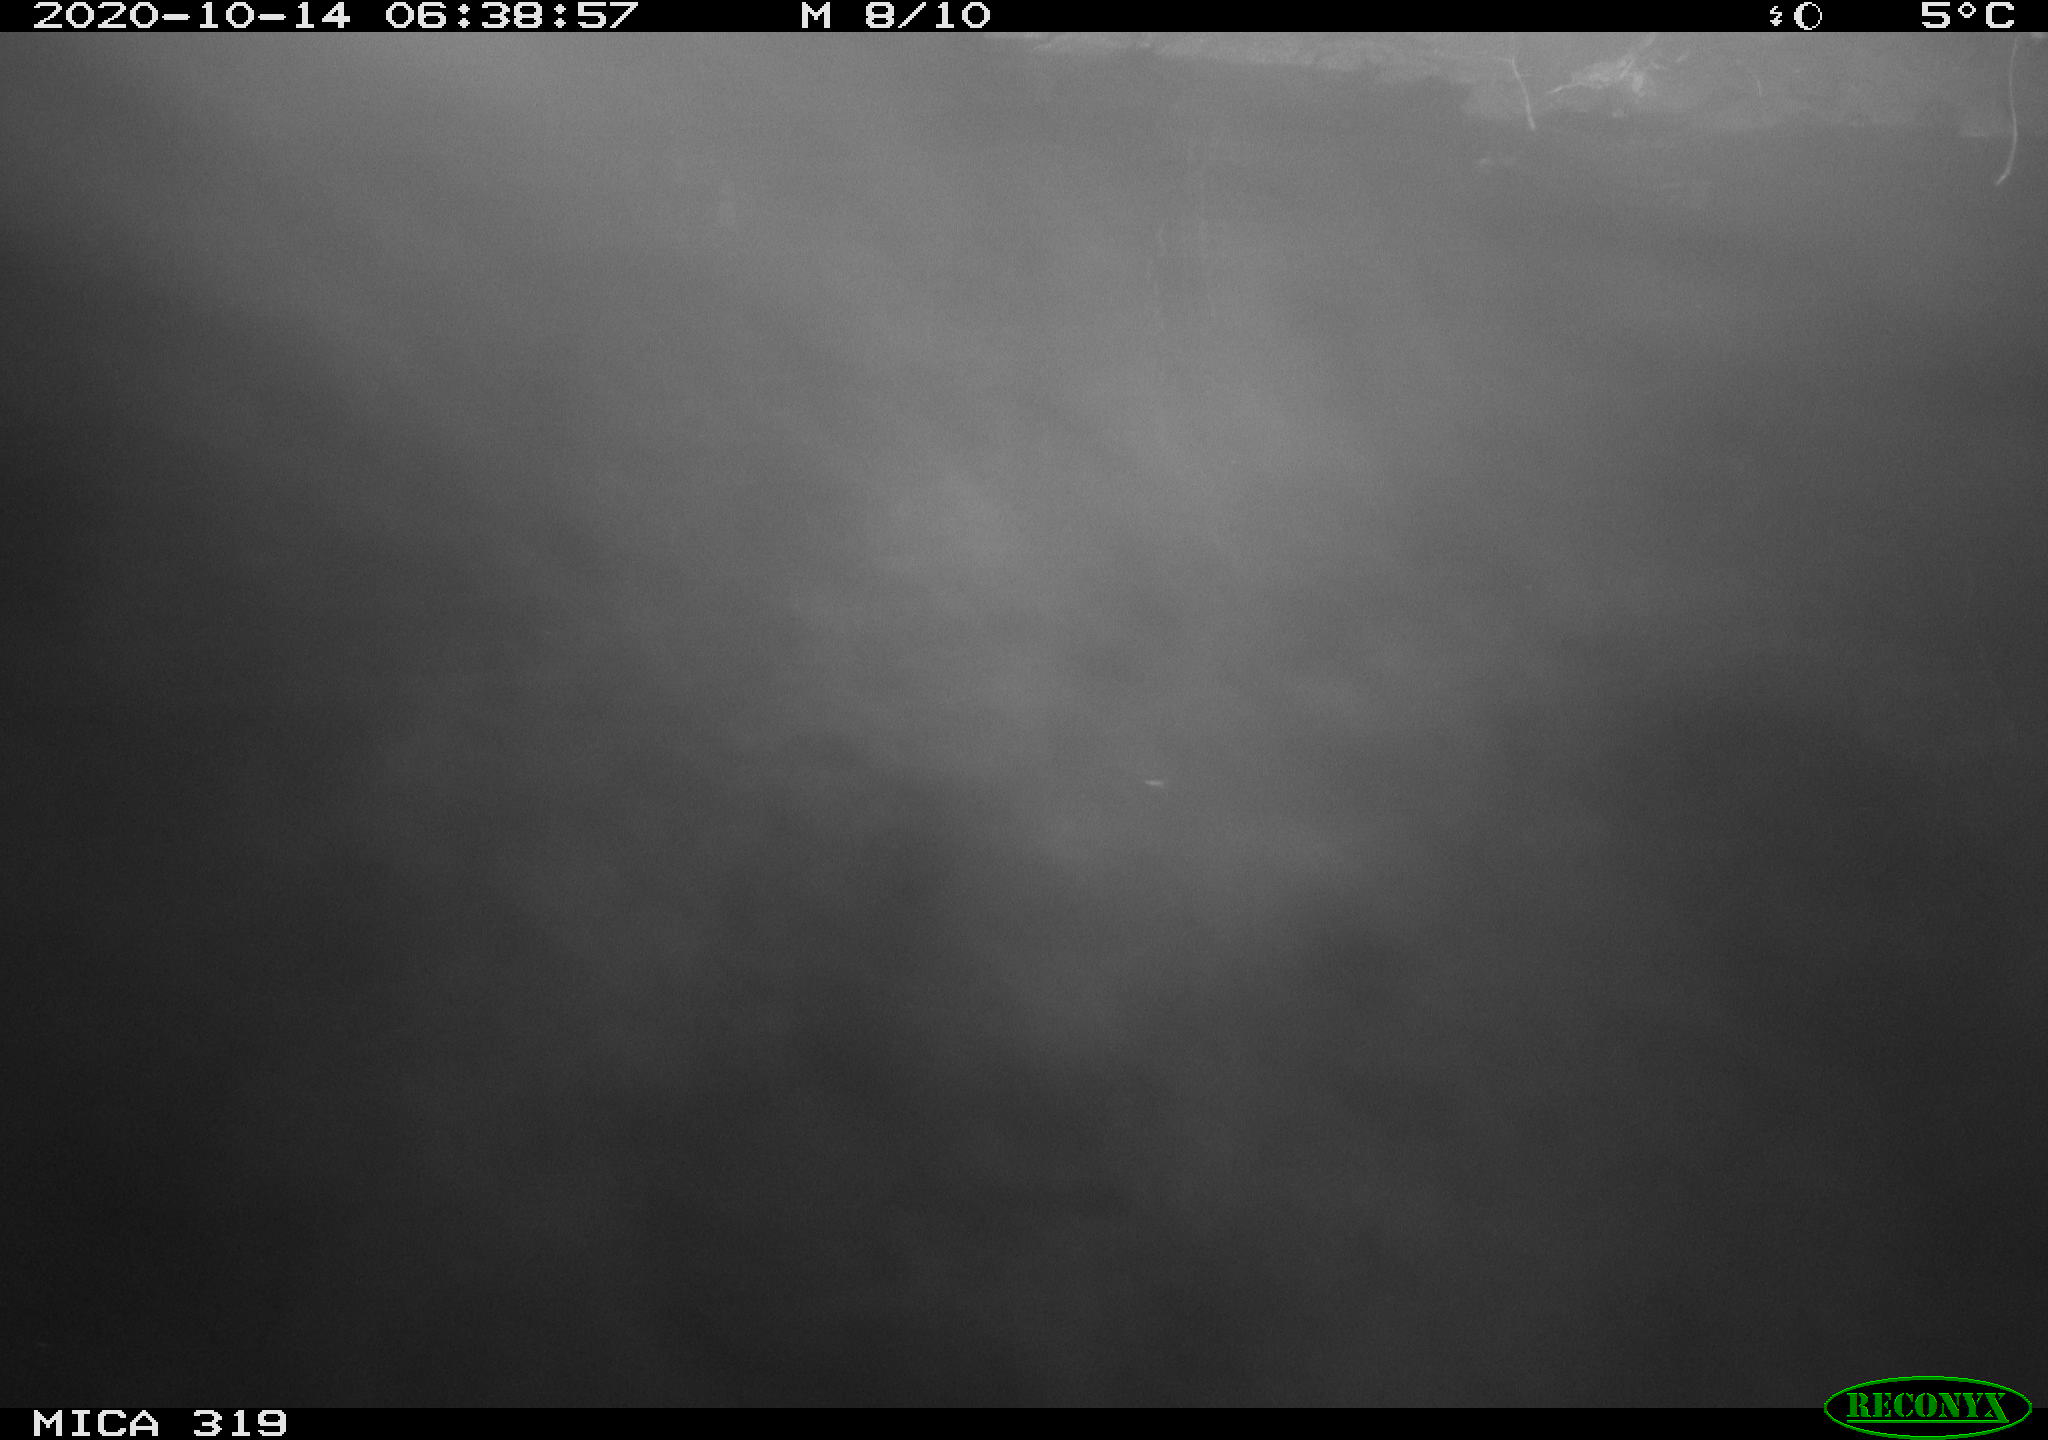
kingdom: Animalia
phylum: Chordata
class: Aves
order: Anseriformes
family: Anatidae
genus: Anas
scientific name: Anas platyrhynchos
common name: Mallard
